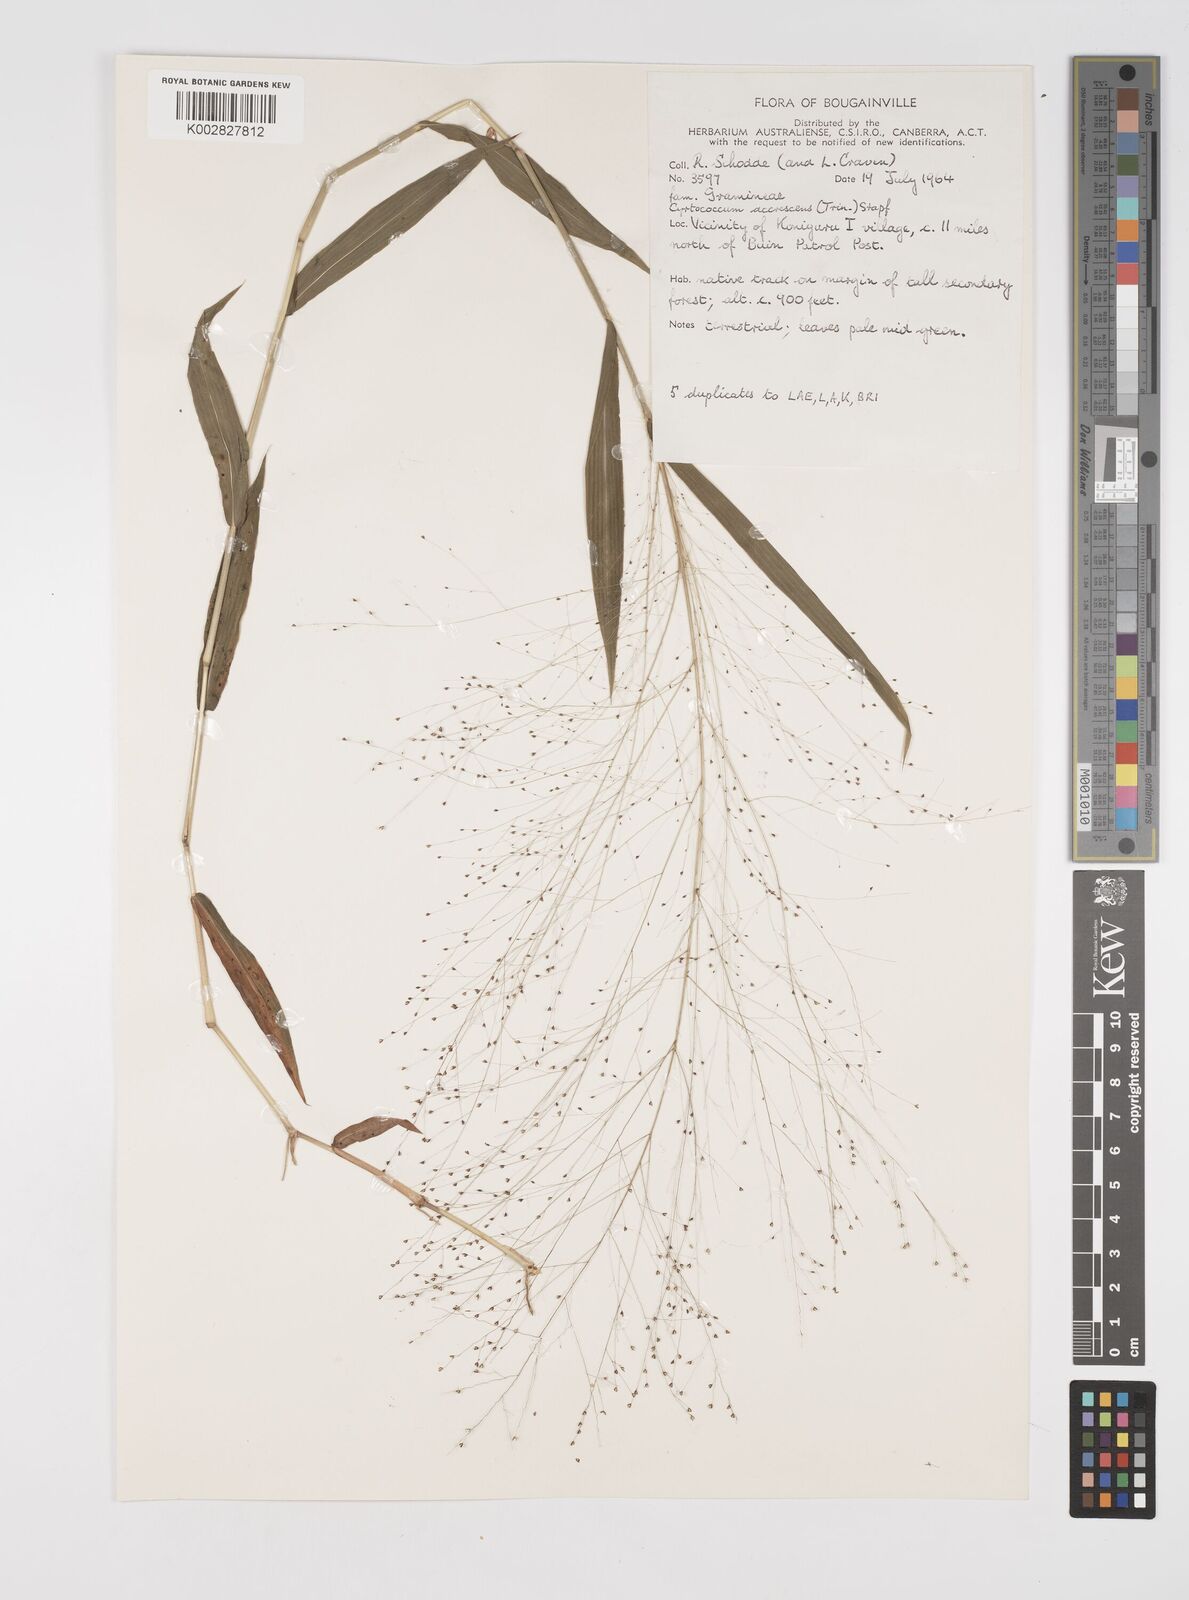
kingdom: Plantae
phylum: Tracheophyta
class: Liliopsida
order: Poales
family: Poaceae
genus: Cyrtococcum
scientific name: Cyrtococcum accrescens
